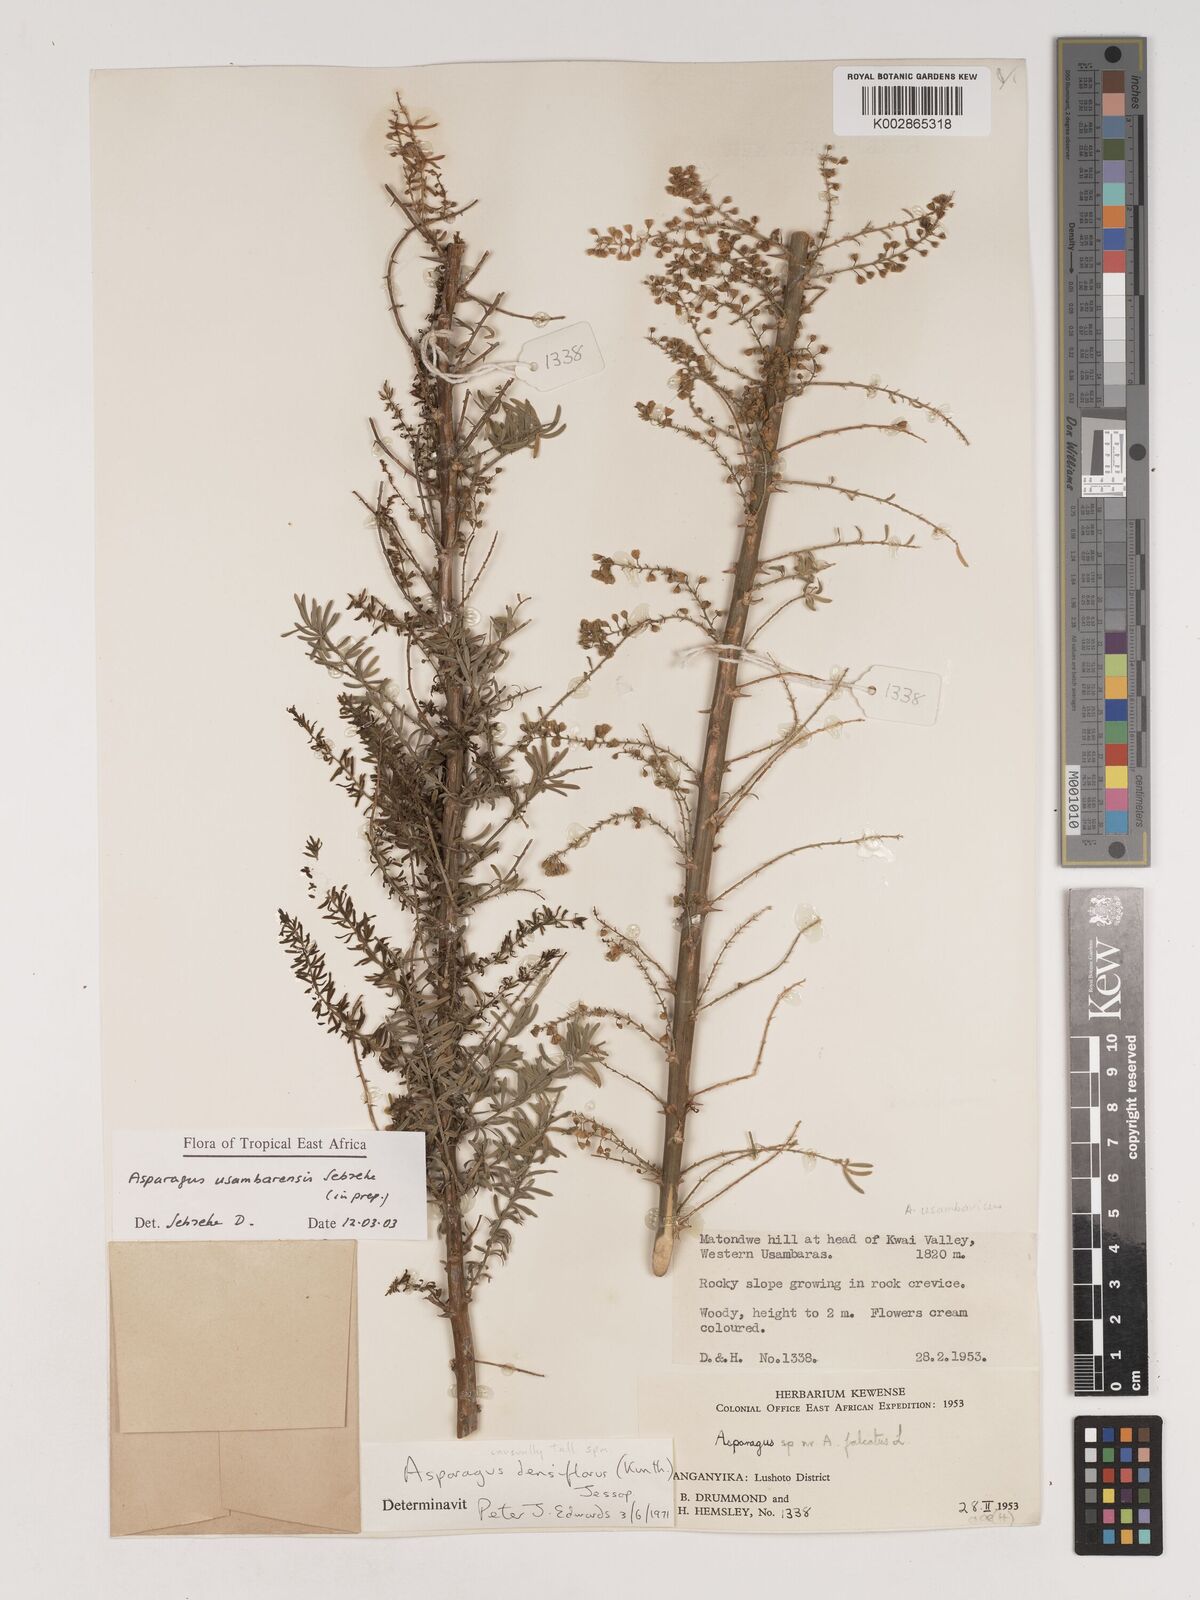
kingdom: Plantae
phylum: Tracheophyta
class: Liliopsida
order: Asparagales
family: Asparagaceae
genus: Asparagus
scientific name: Asparagus usambarensis
